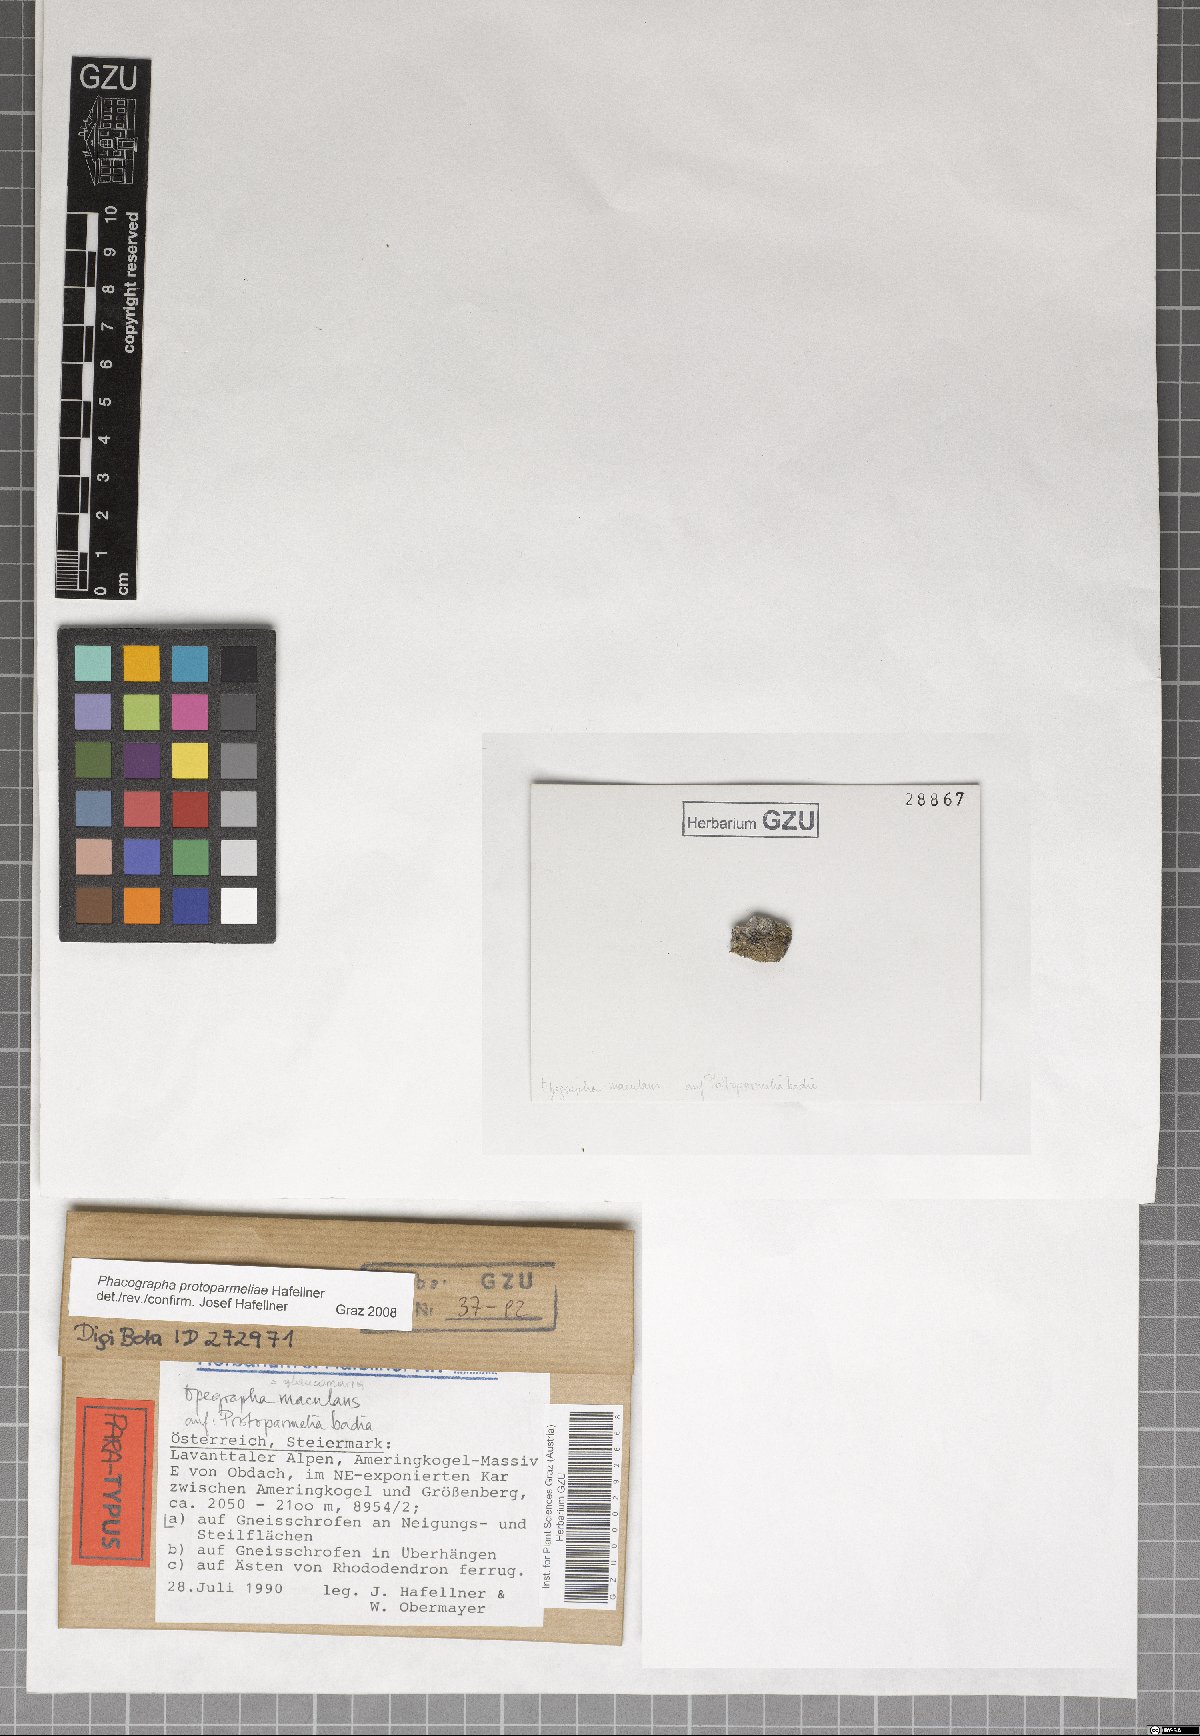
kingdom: Fungi
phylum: Ascomycota
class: Arthoniomycetes
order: Arthoniales
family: Roccellaceae
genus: Phacographa
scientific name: Phacographa protoparmeliae
